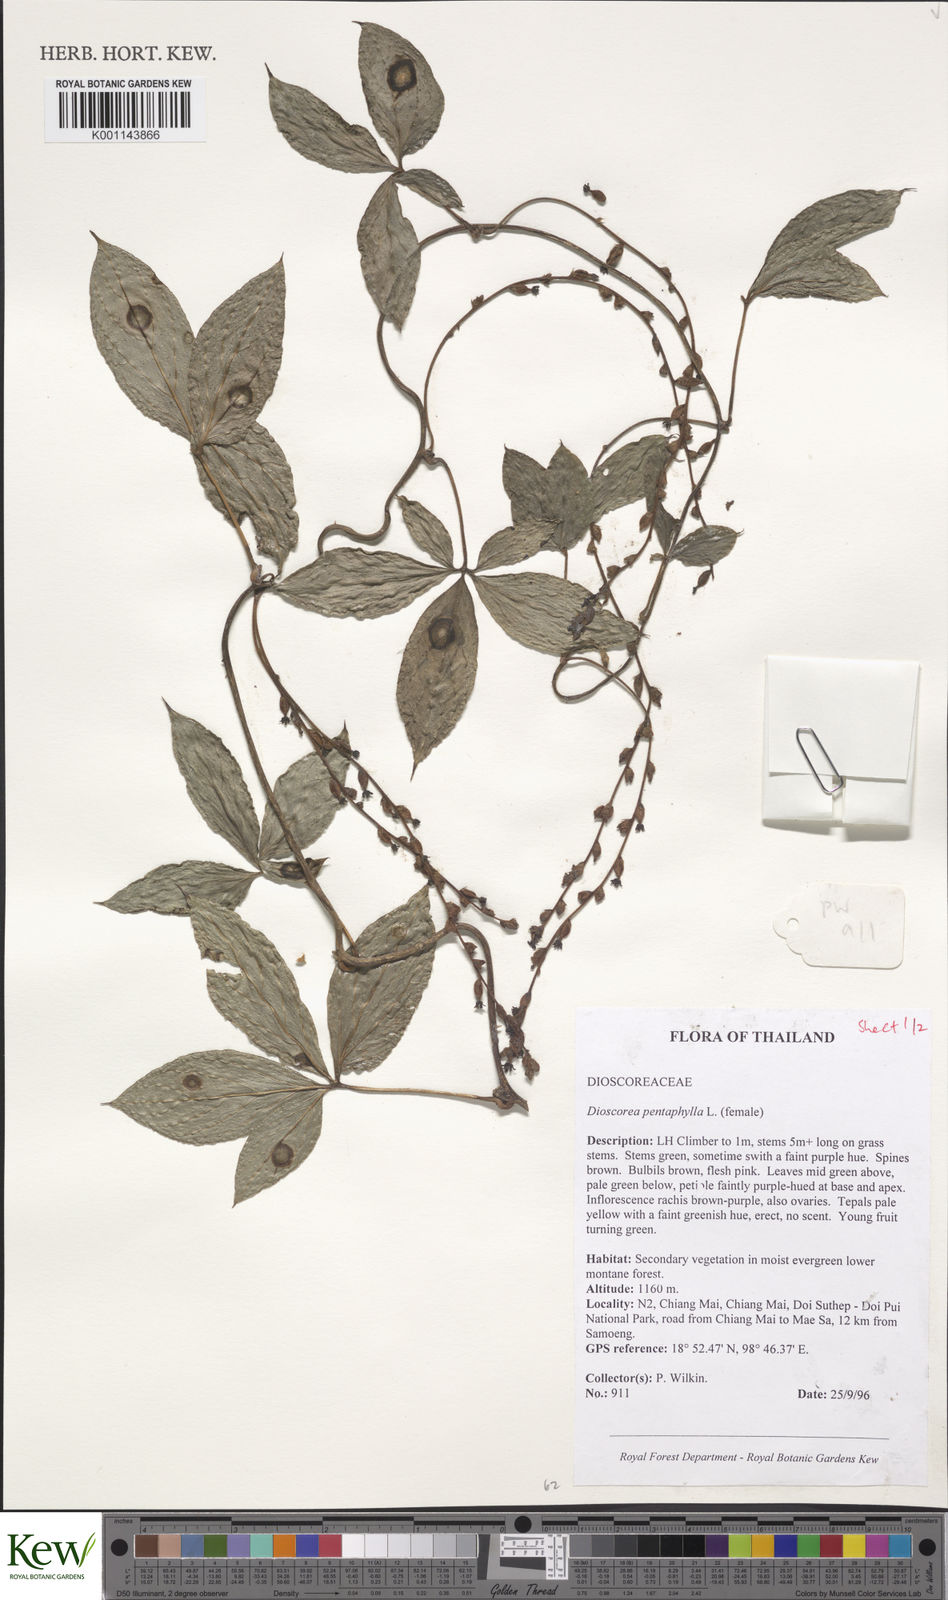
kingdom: Plantae
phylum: Tracheophyta
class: Liliopsida
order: Dioscoreales
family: Dioscoreaceae
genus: Dioscorea
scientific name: Dioscorea pentaphylla
